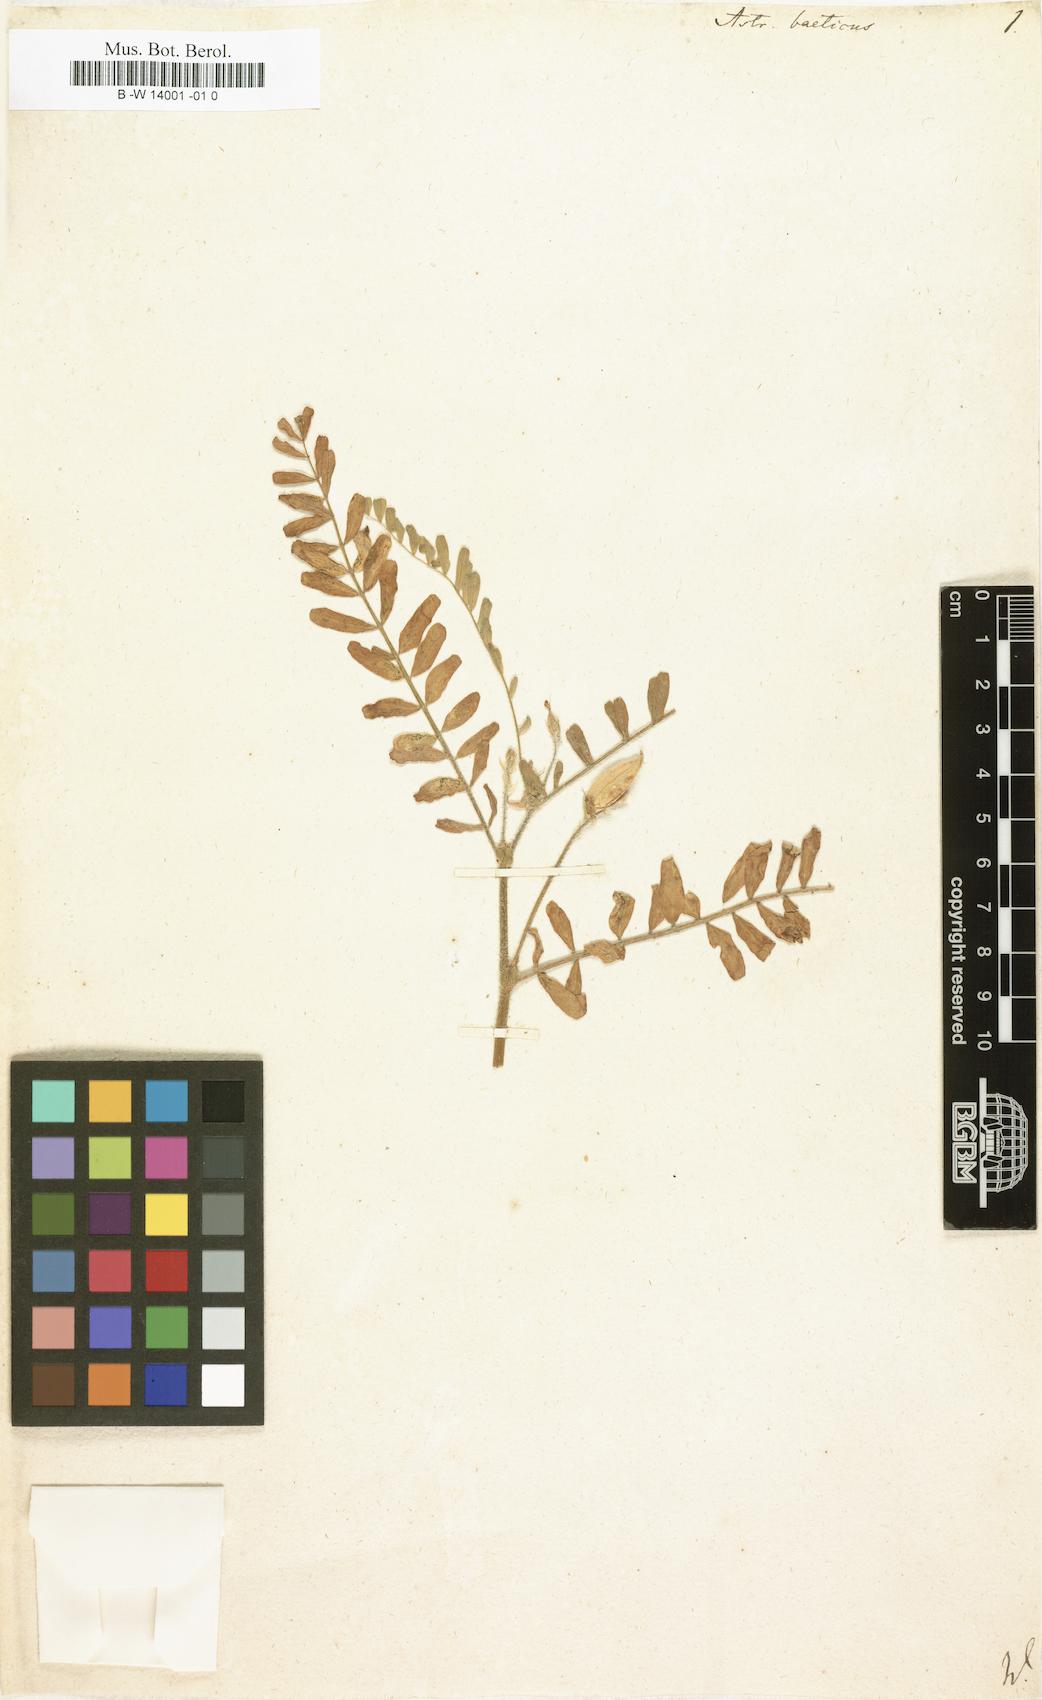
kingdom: Plantae
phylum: Tracheophyta
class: Magnoliopsida
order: Fabales
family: Fabaceae
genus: Astragalus
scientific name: Astragalus boeticus
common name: Milk-vetch
